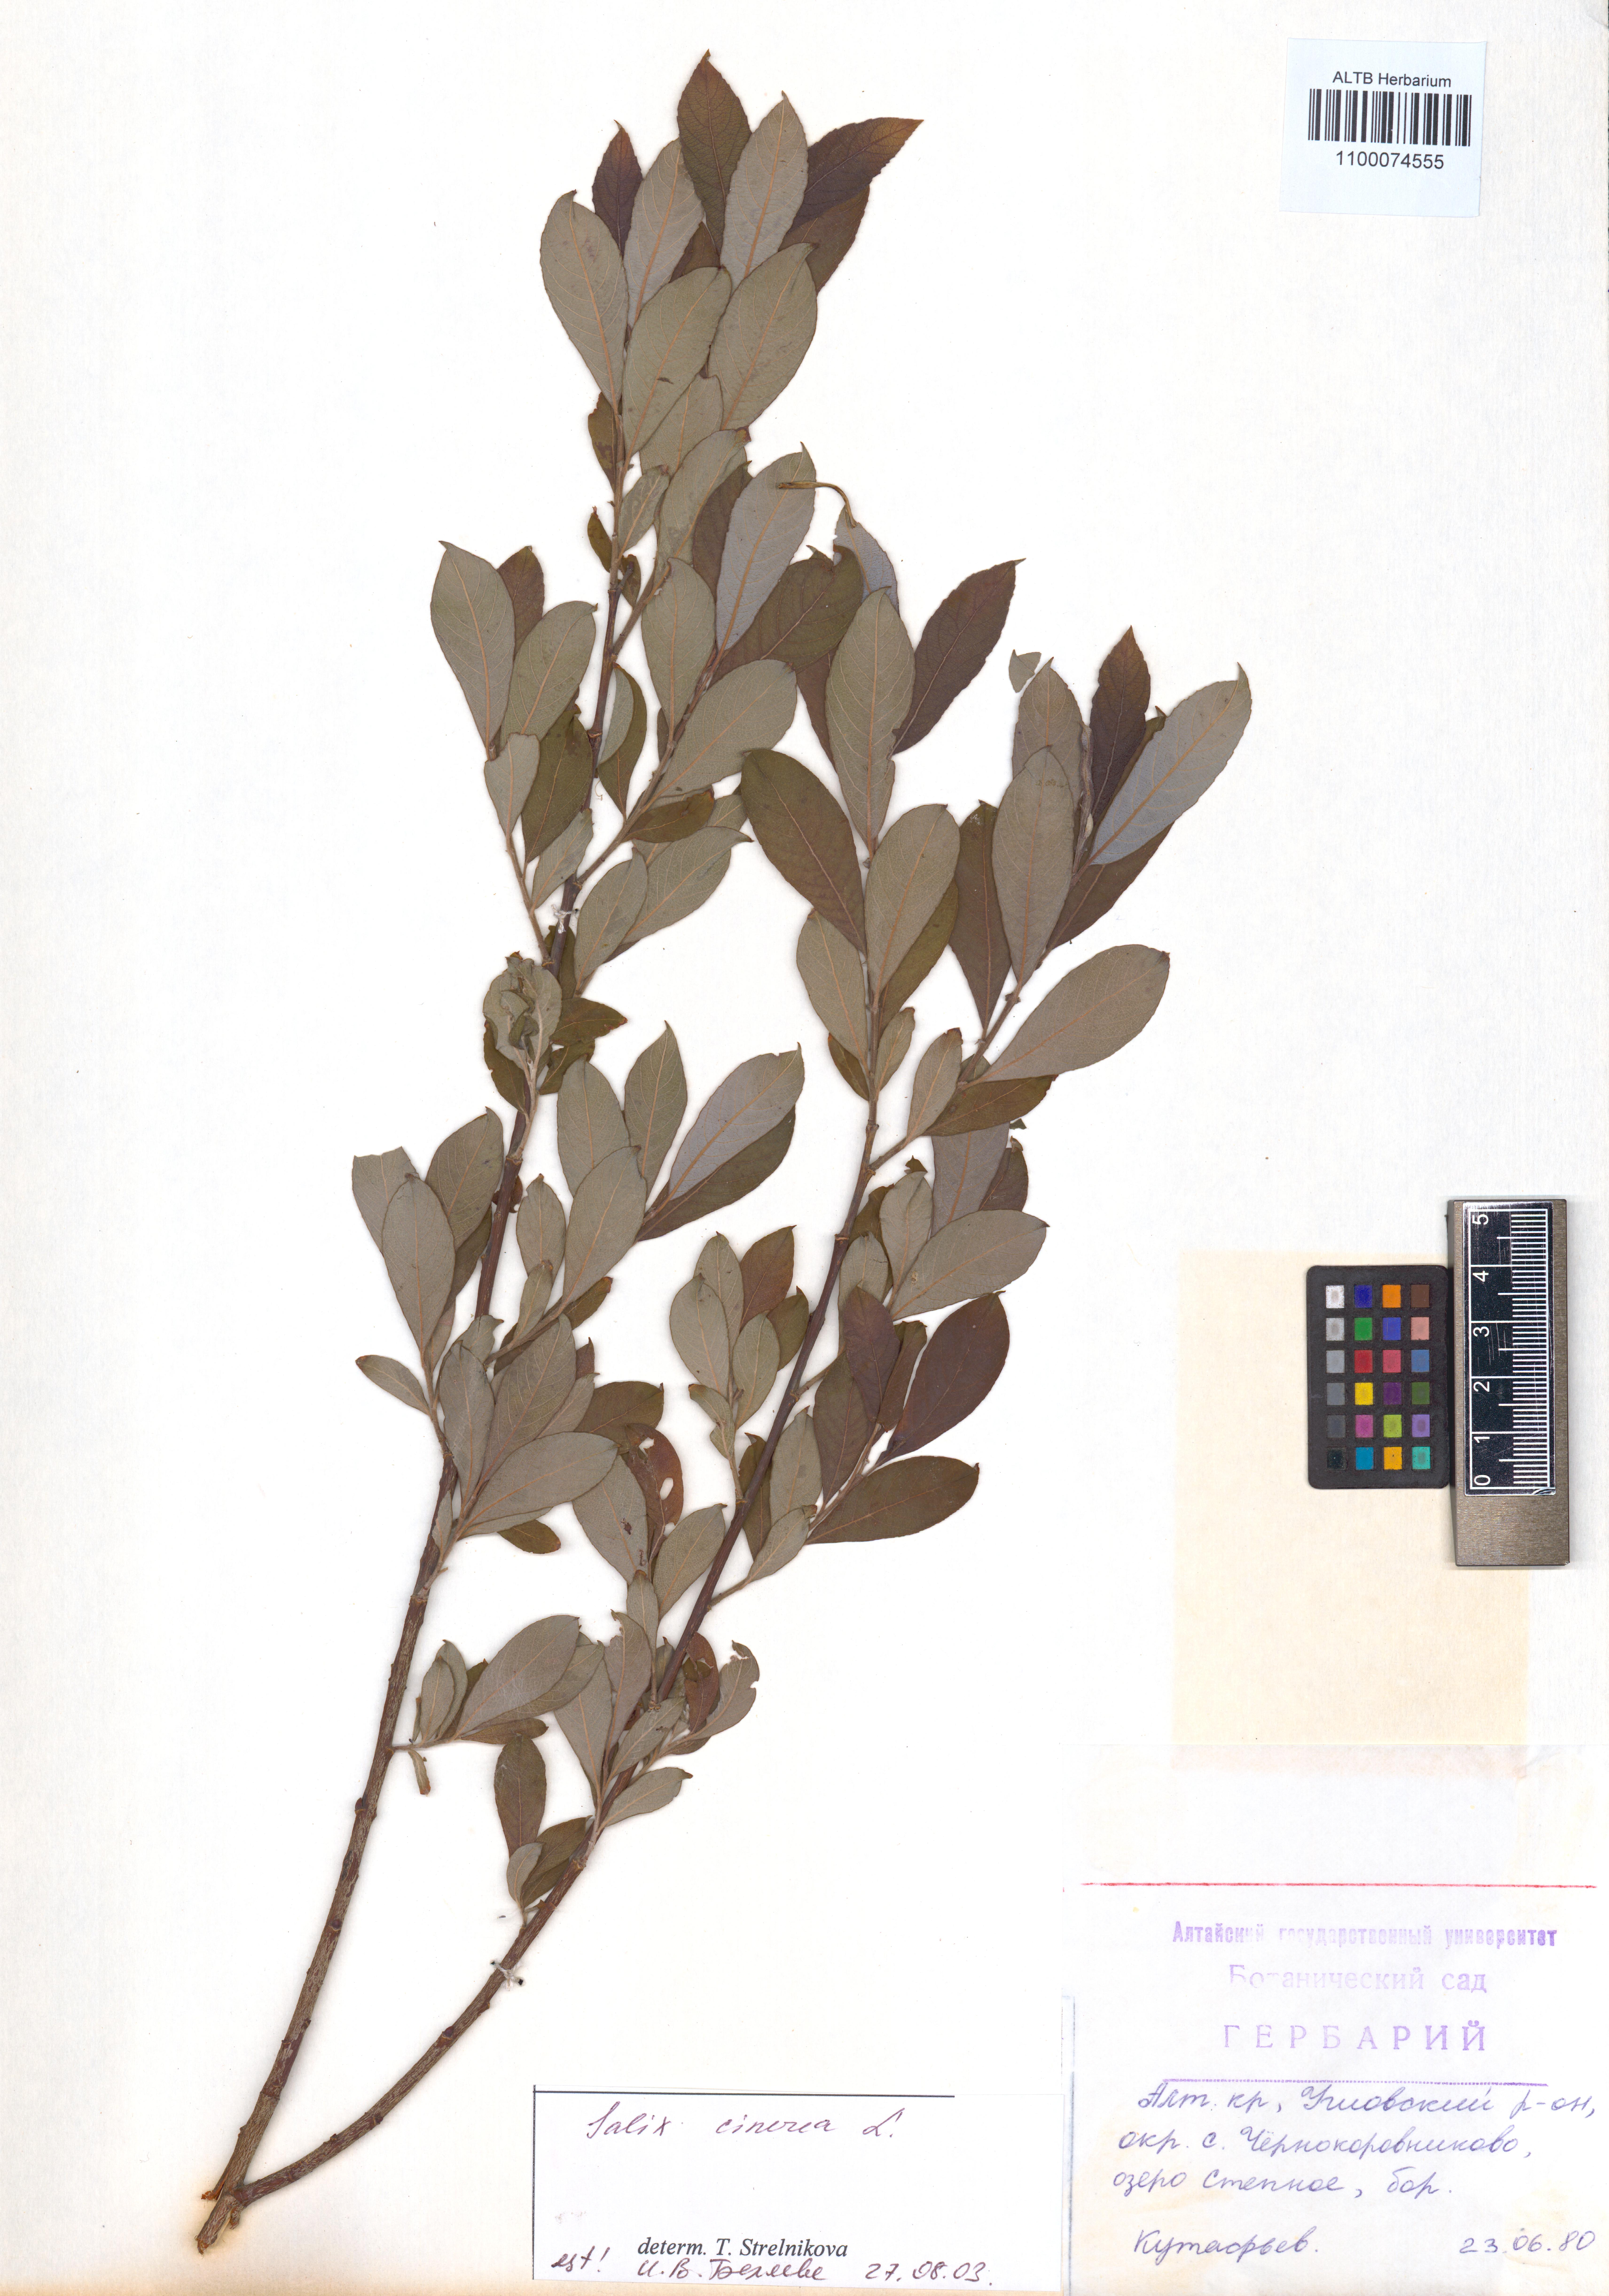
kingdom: Plantae
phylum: Tracheophyta
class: Magnoliopsida
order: Malpighiales
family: Salicaceae
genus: Salix
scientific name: Salix cinerea
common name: Common sallow
